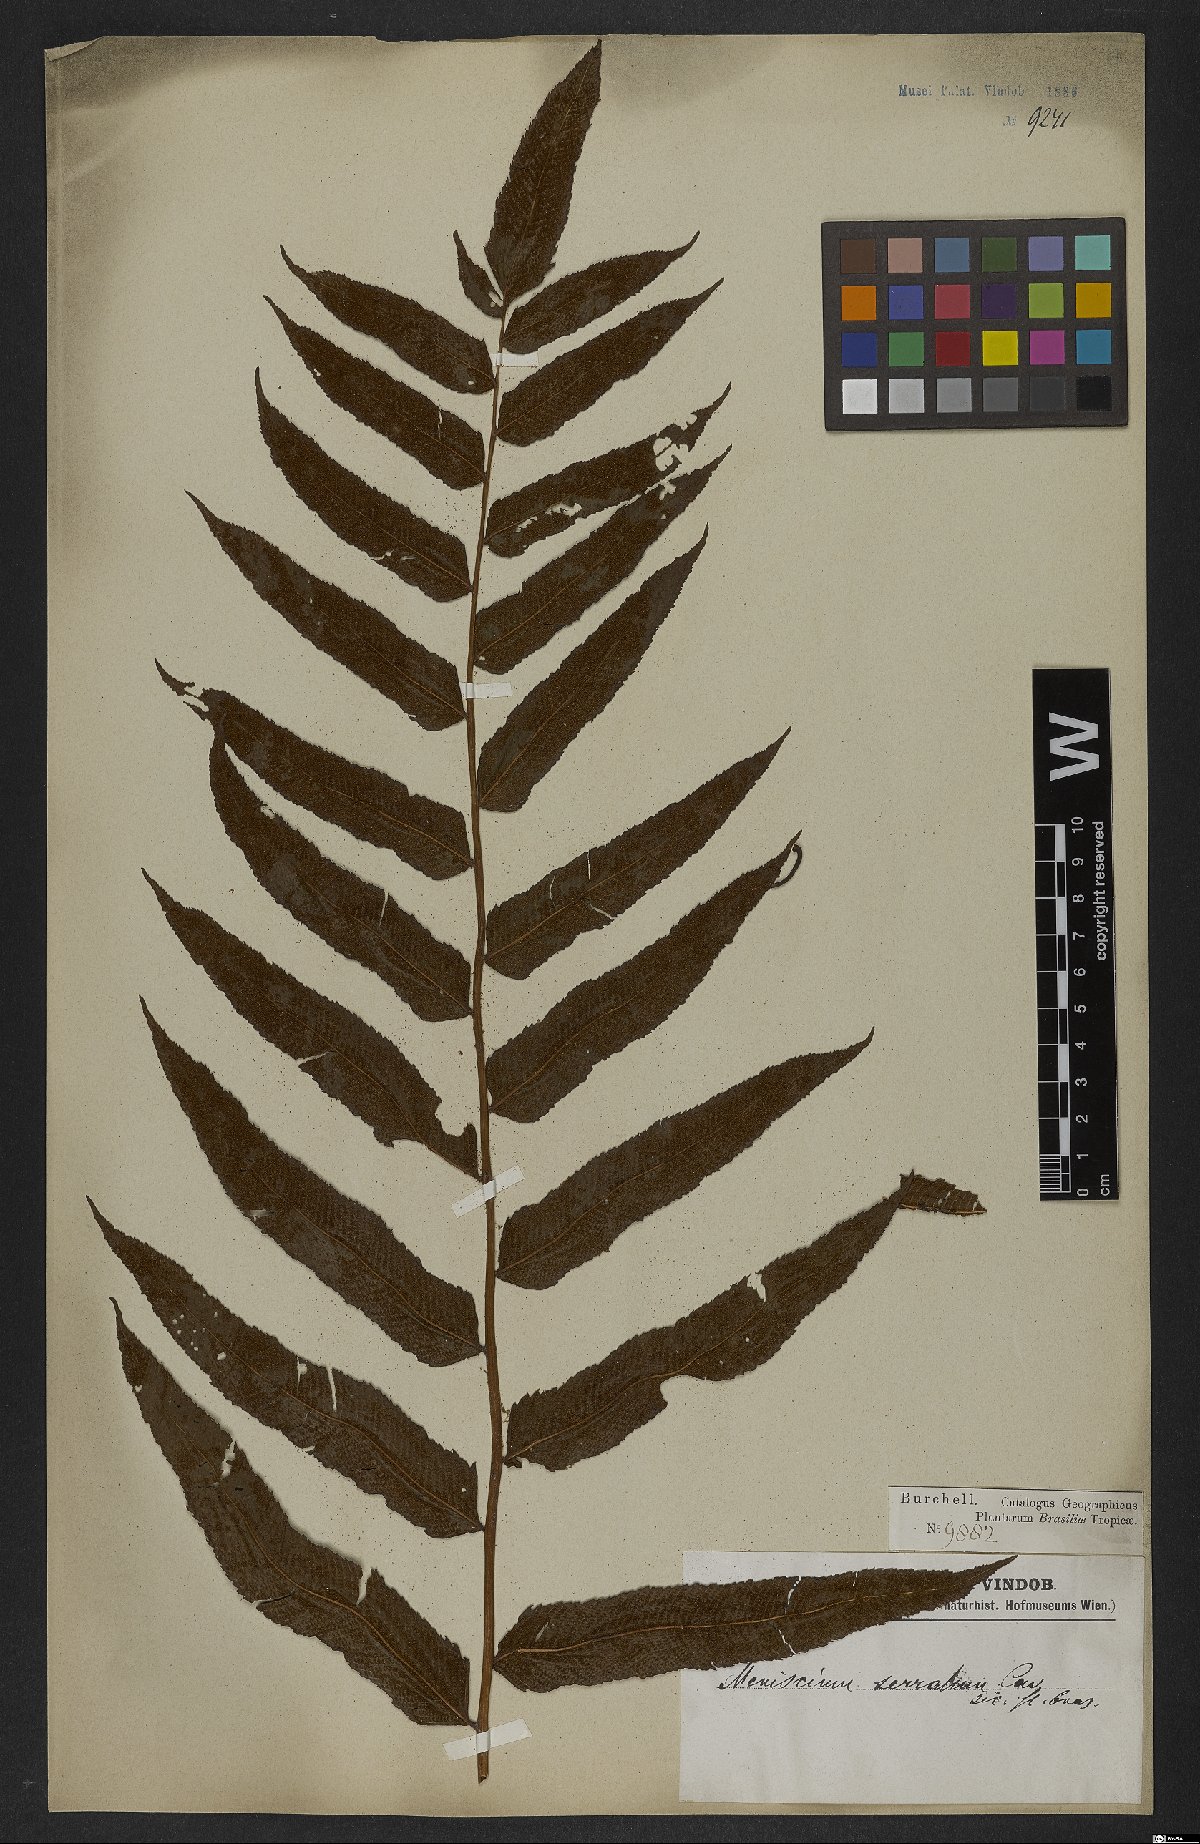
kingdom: Plantae
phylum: Tracheophyta
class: Polypodiopsida
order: Polypodiales
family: Thelypteridaceae
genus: Meniscium
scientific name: Meniscium serratum
